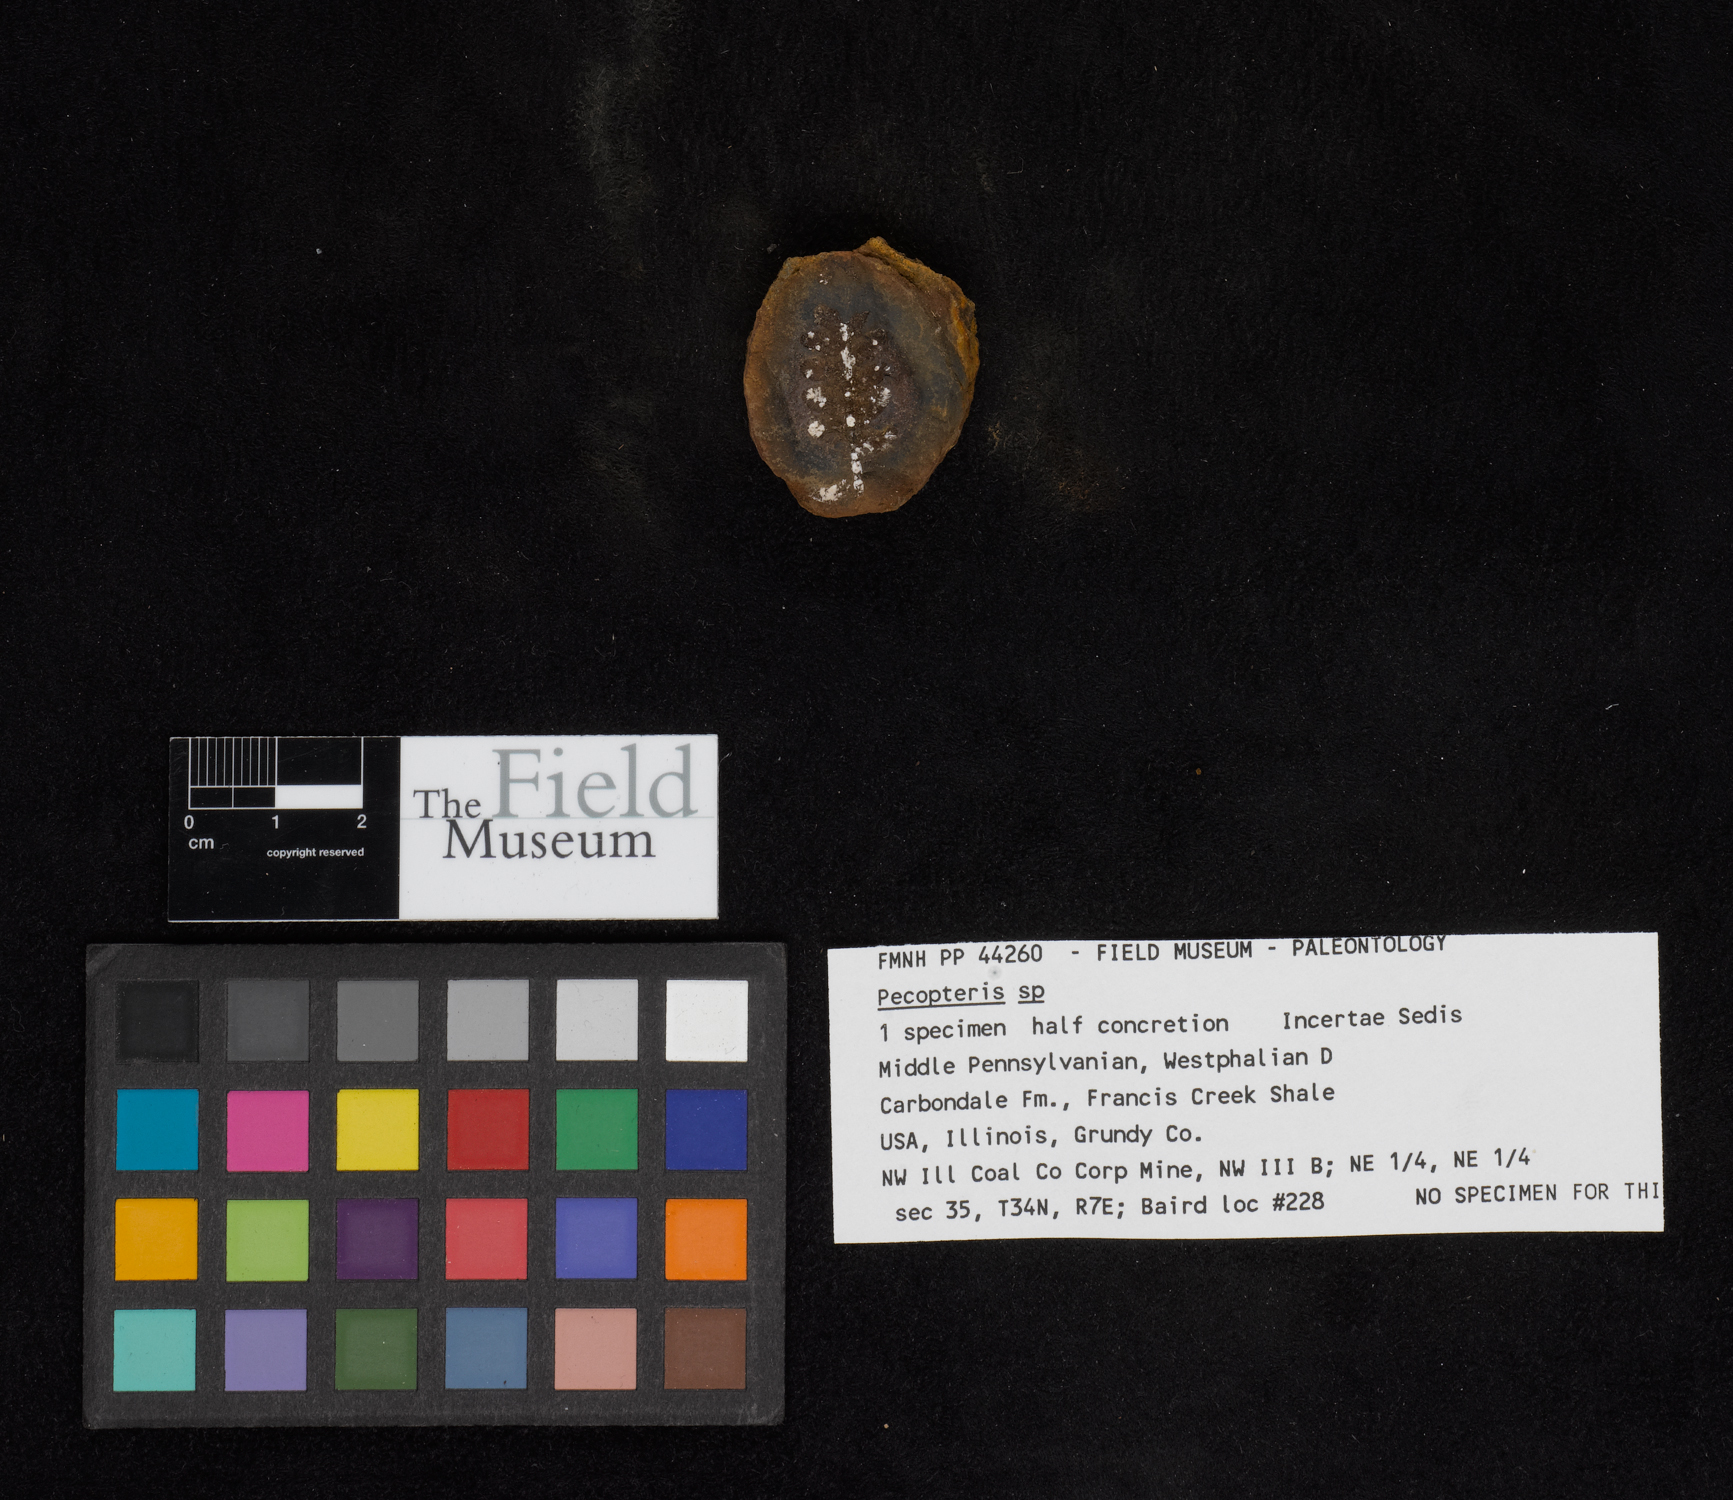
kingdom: Plantae
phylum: Tracheophyta
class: Polypodiopsida
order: Marattiales
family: Asterothecaceae
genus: Pecopteris
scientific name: Pecopteris
